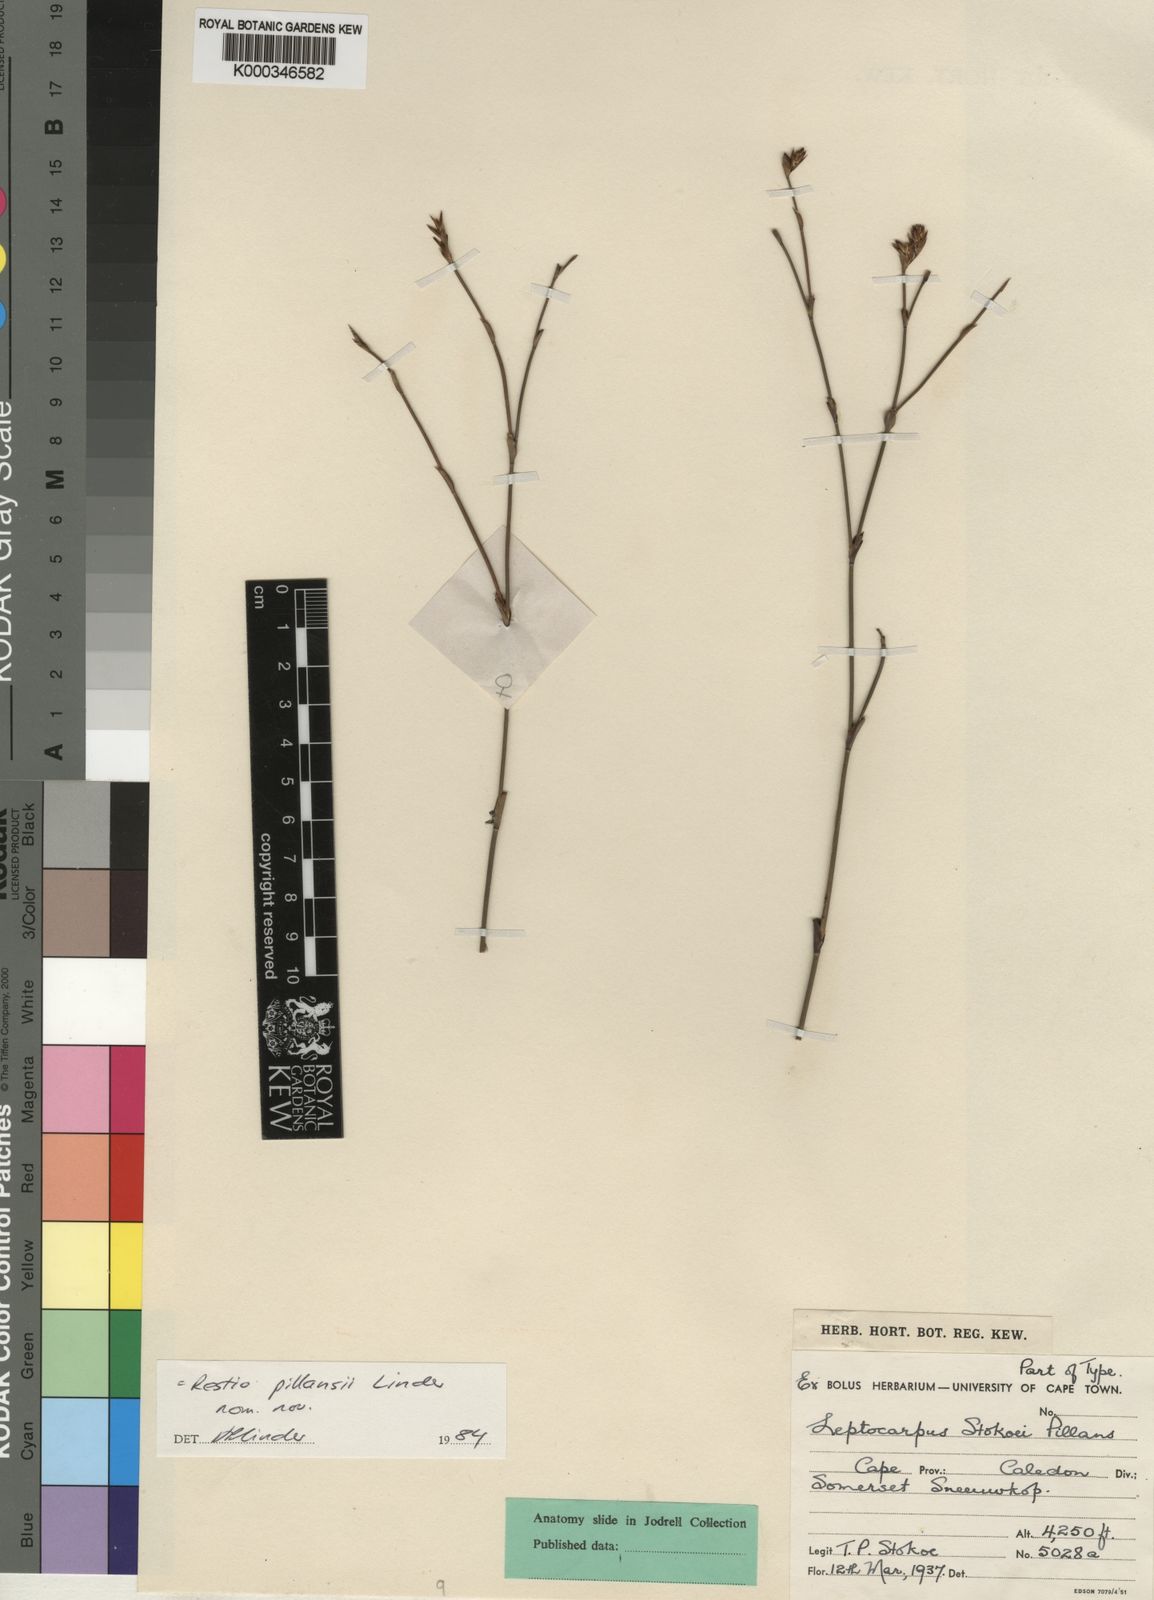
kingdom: Plantae
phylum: Tracheophyta
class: Liliopsida
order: Poales
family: Restionaceae
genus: Restio
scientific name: Restio pillansii
